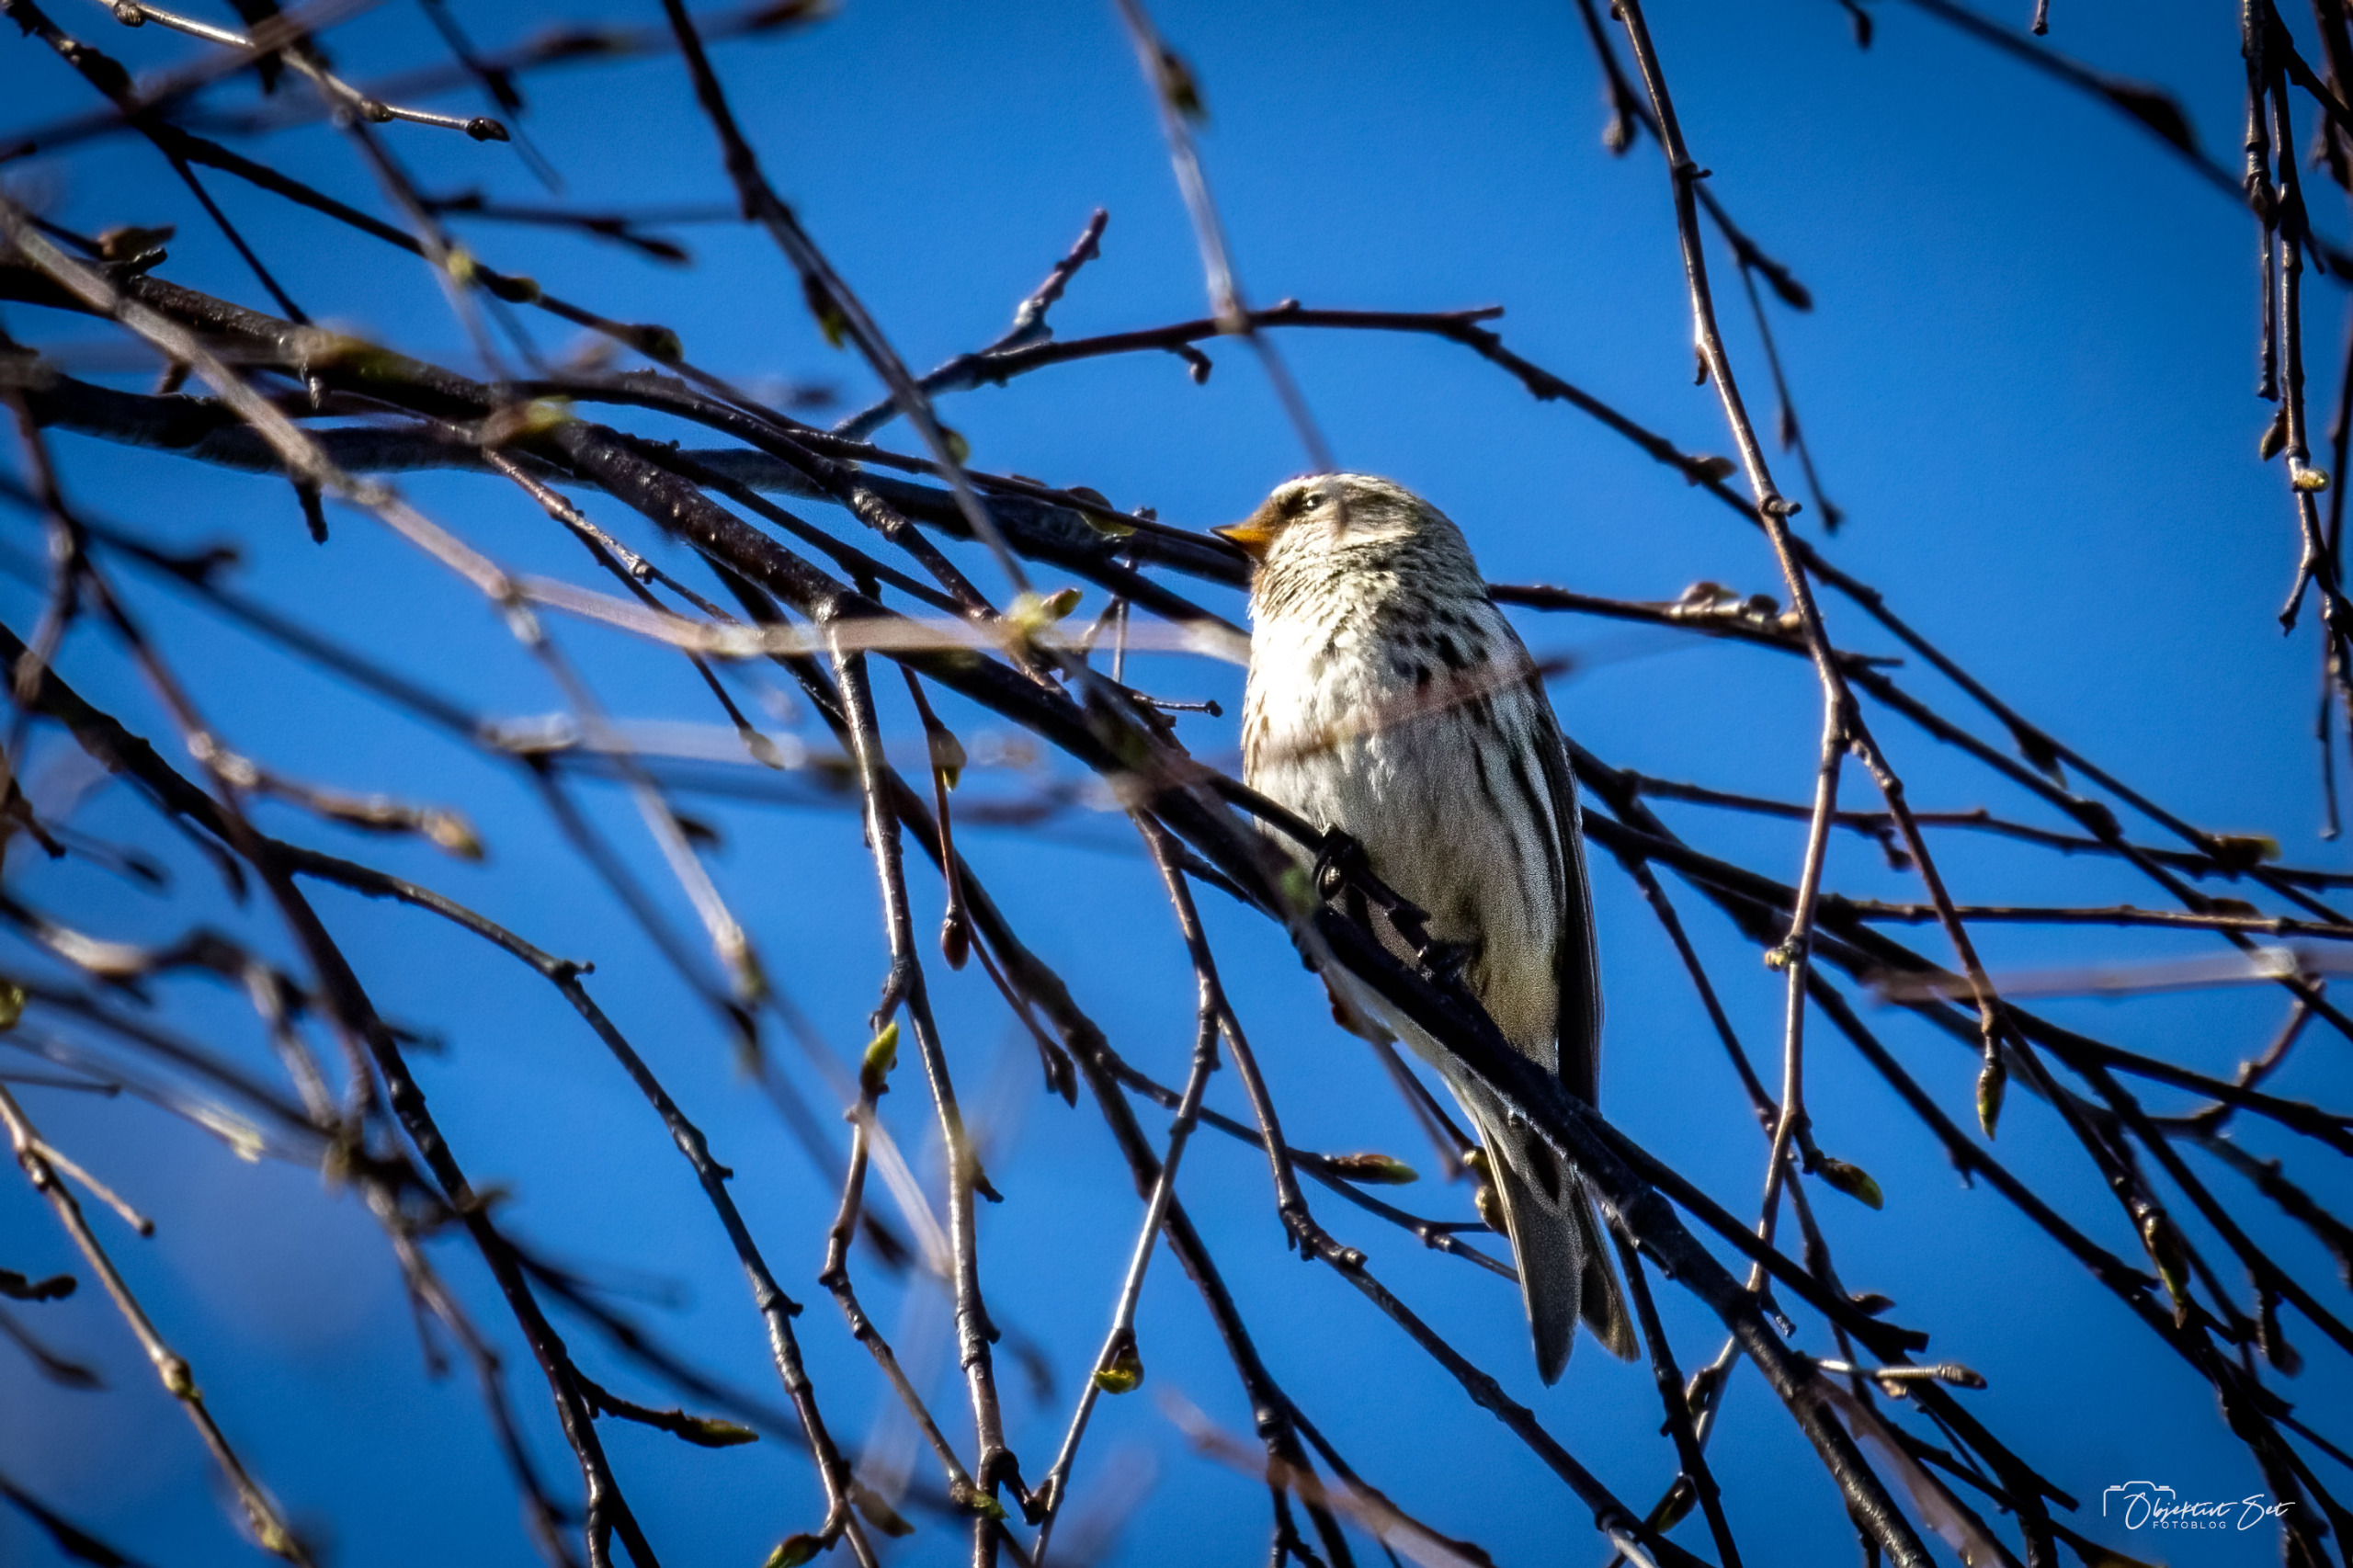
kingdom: Animalia
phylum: Chordata
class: Aves
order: Passeriformes
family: Fringillidae
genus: Acanthis
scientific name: Acanthis flammea
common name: Nordlig gråsisken
